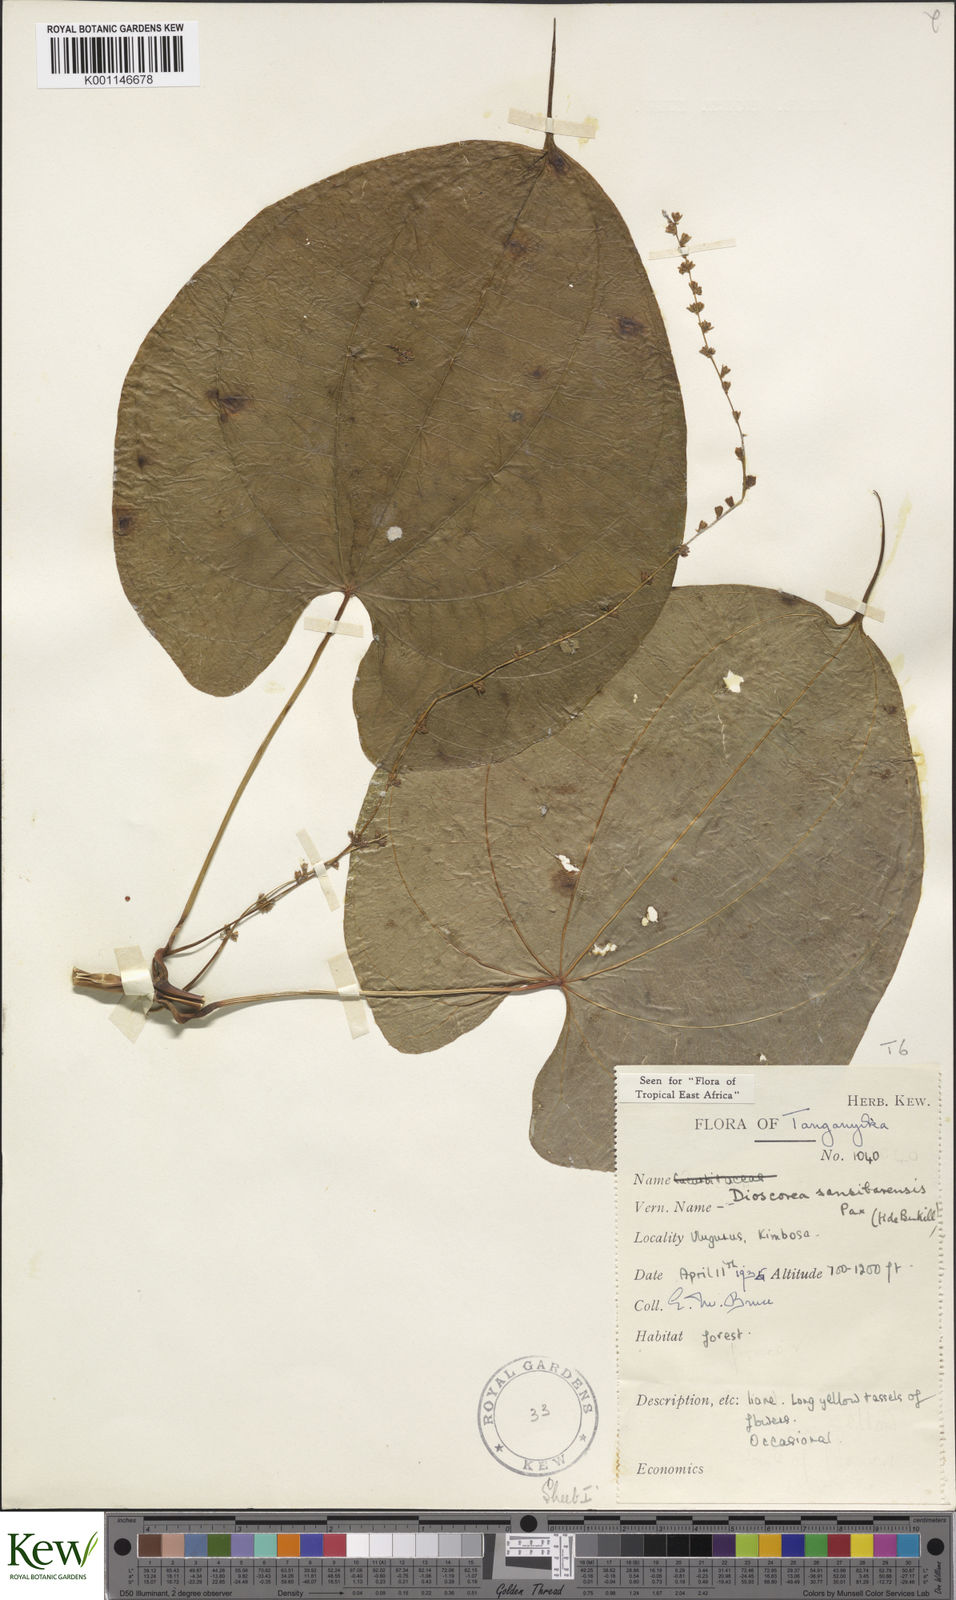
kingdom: Plantae
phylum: Tracheophyta
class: Liliopsida
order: Dioscoreales
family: Dioscoreaceae
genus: Dioscorea
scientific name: Dioscorea sansibarensis
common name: Zanzibar yam
